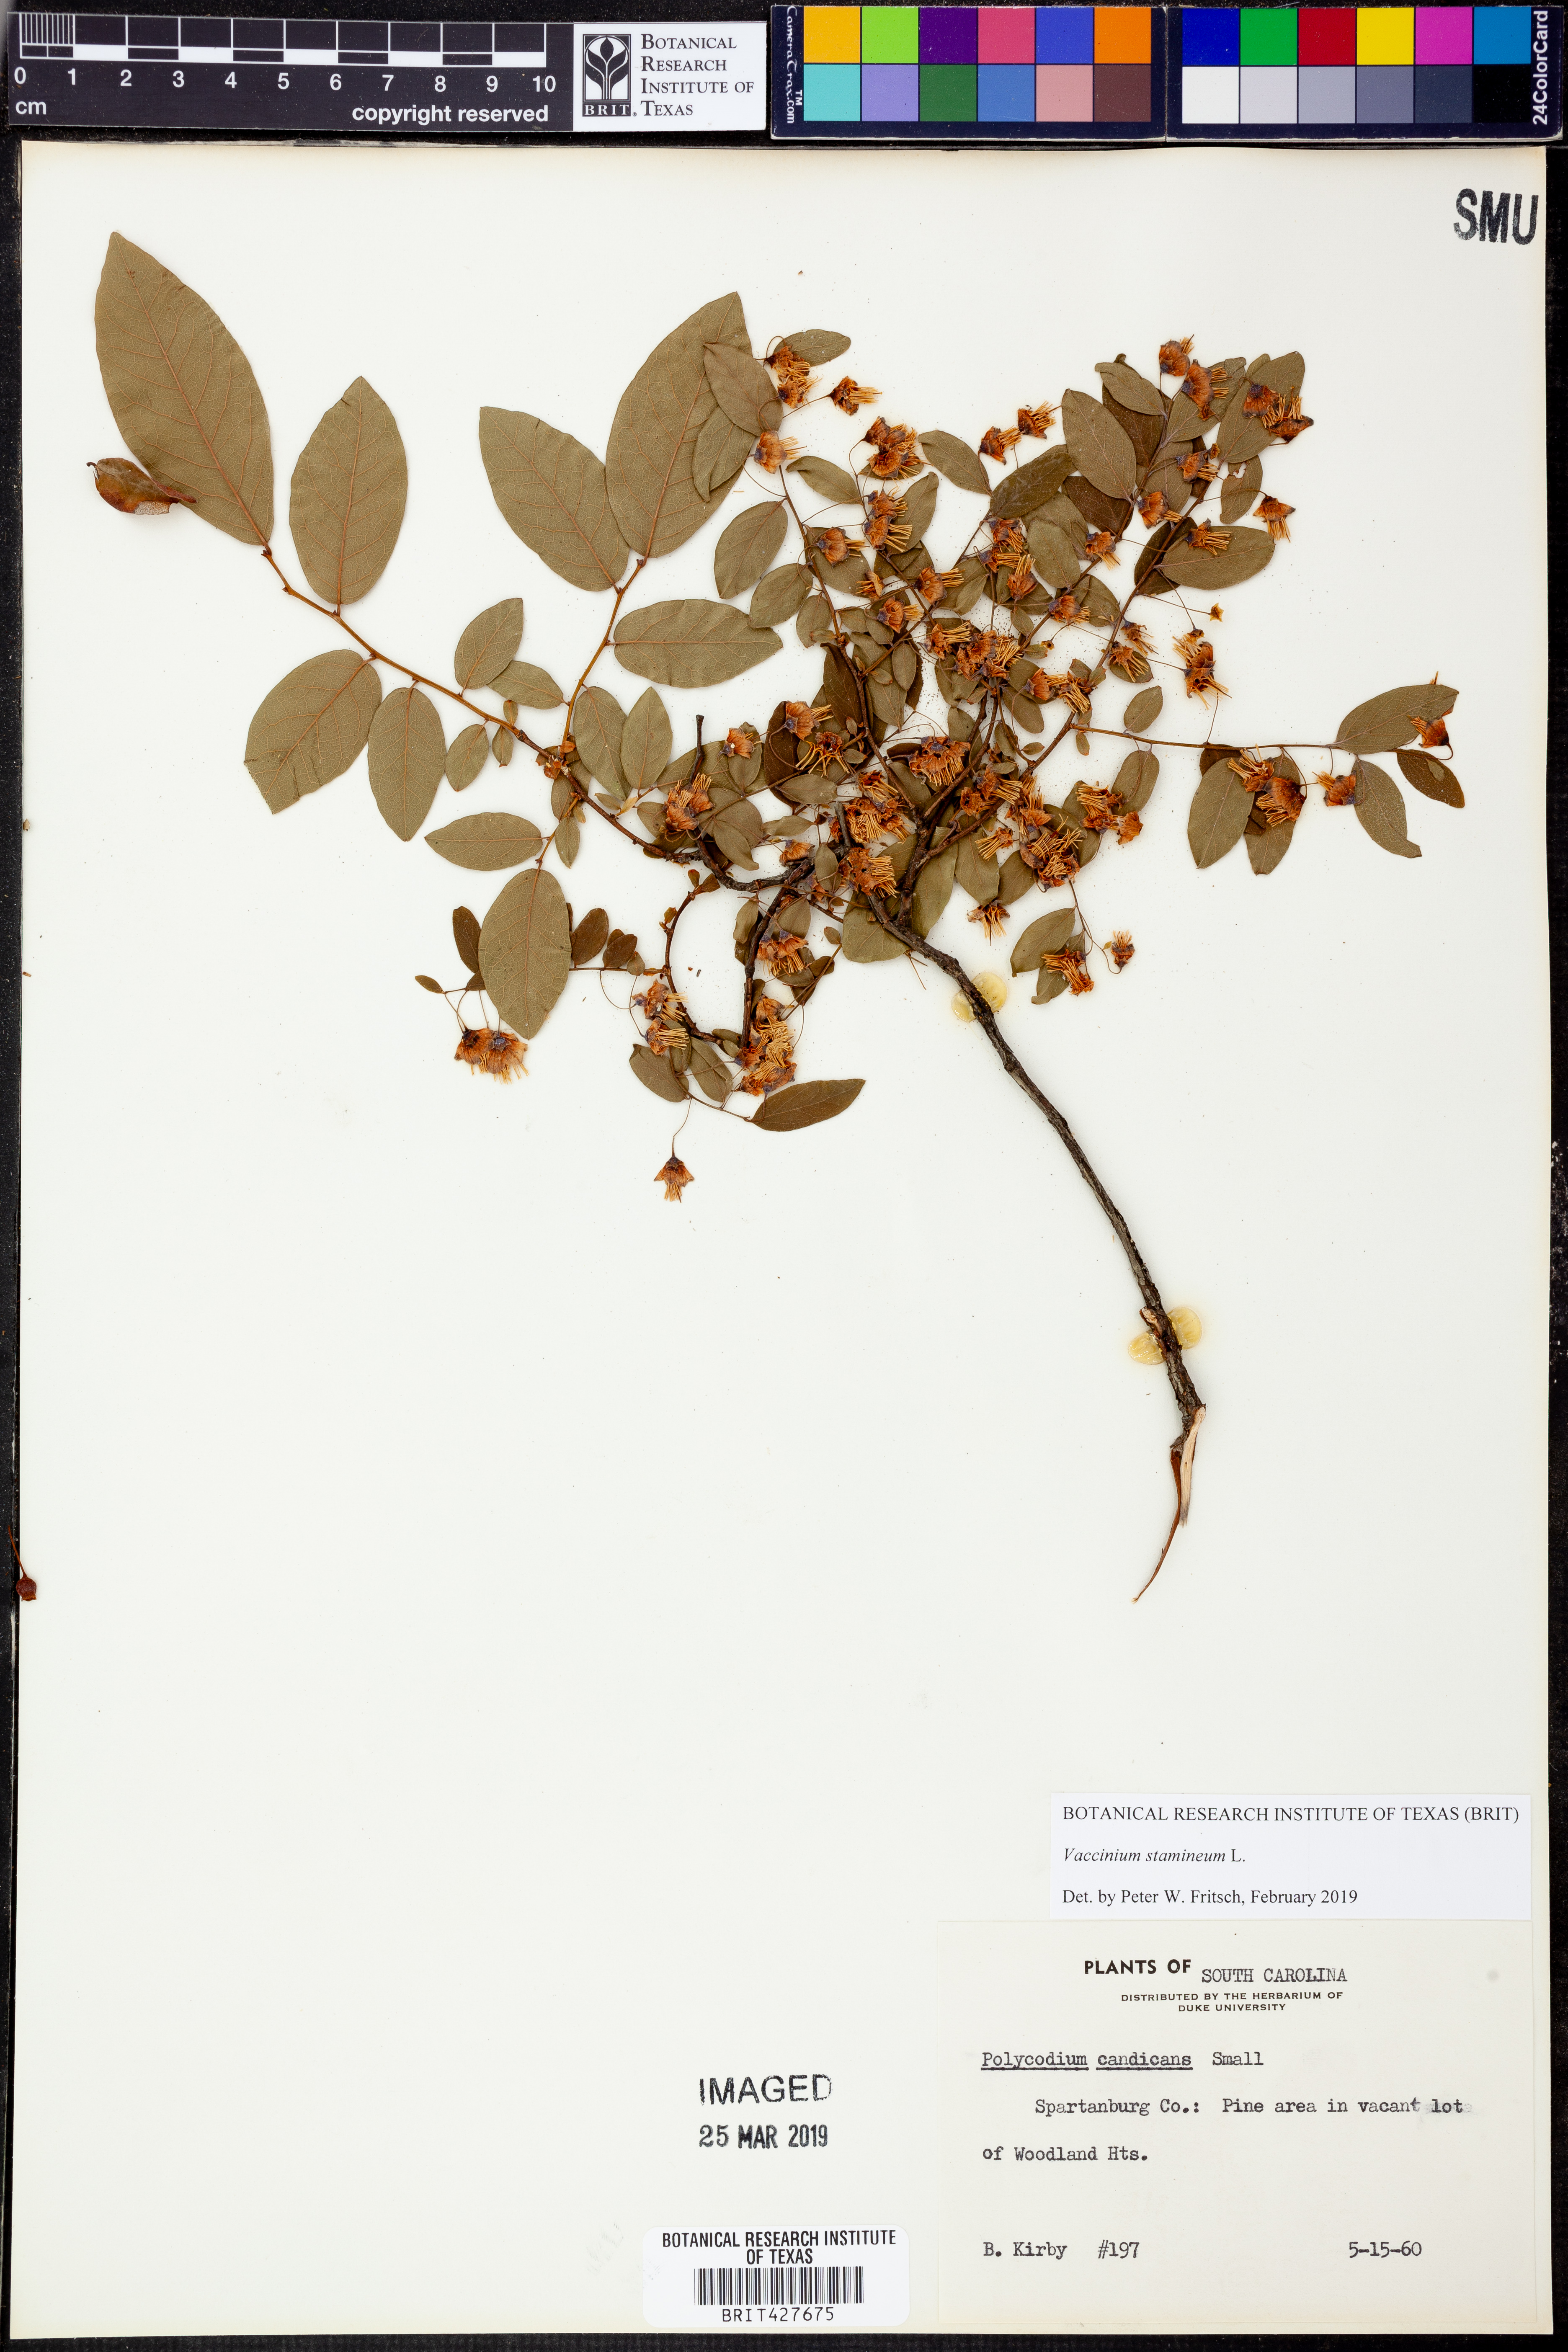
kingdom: Plantae
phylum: Tracheophyta
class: Magnoliopsida
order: Ericales
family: Ericaceae
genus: Vaccinium
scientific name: Vaccinium stamineum
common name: Deerberry
